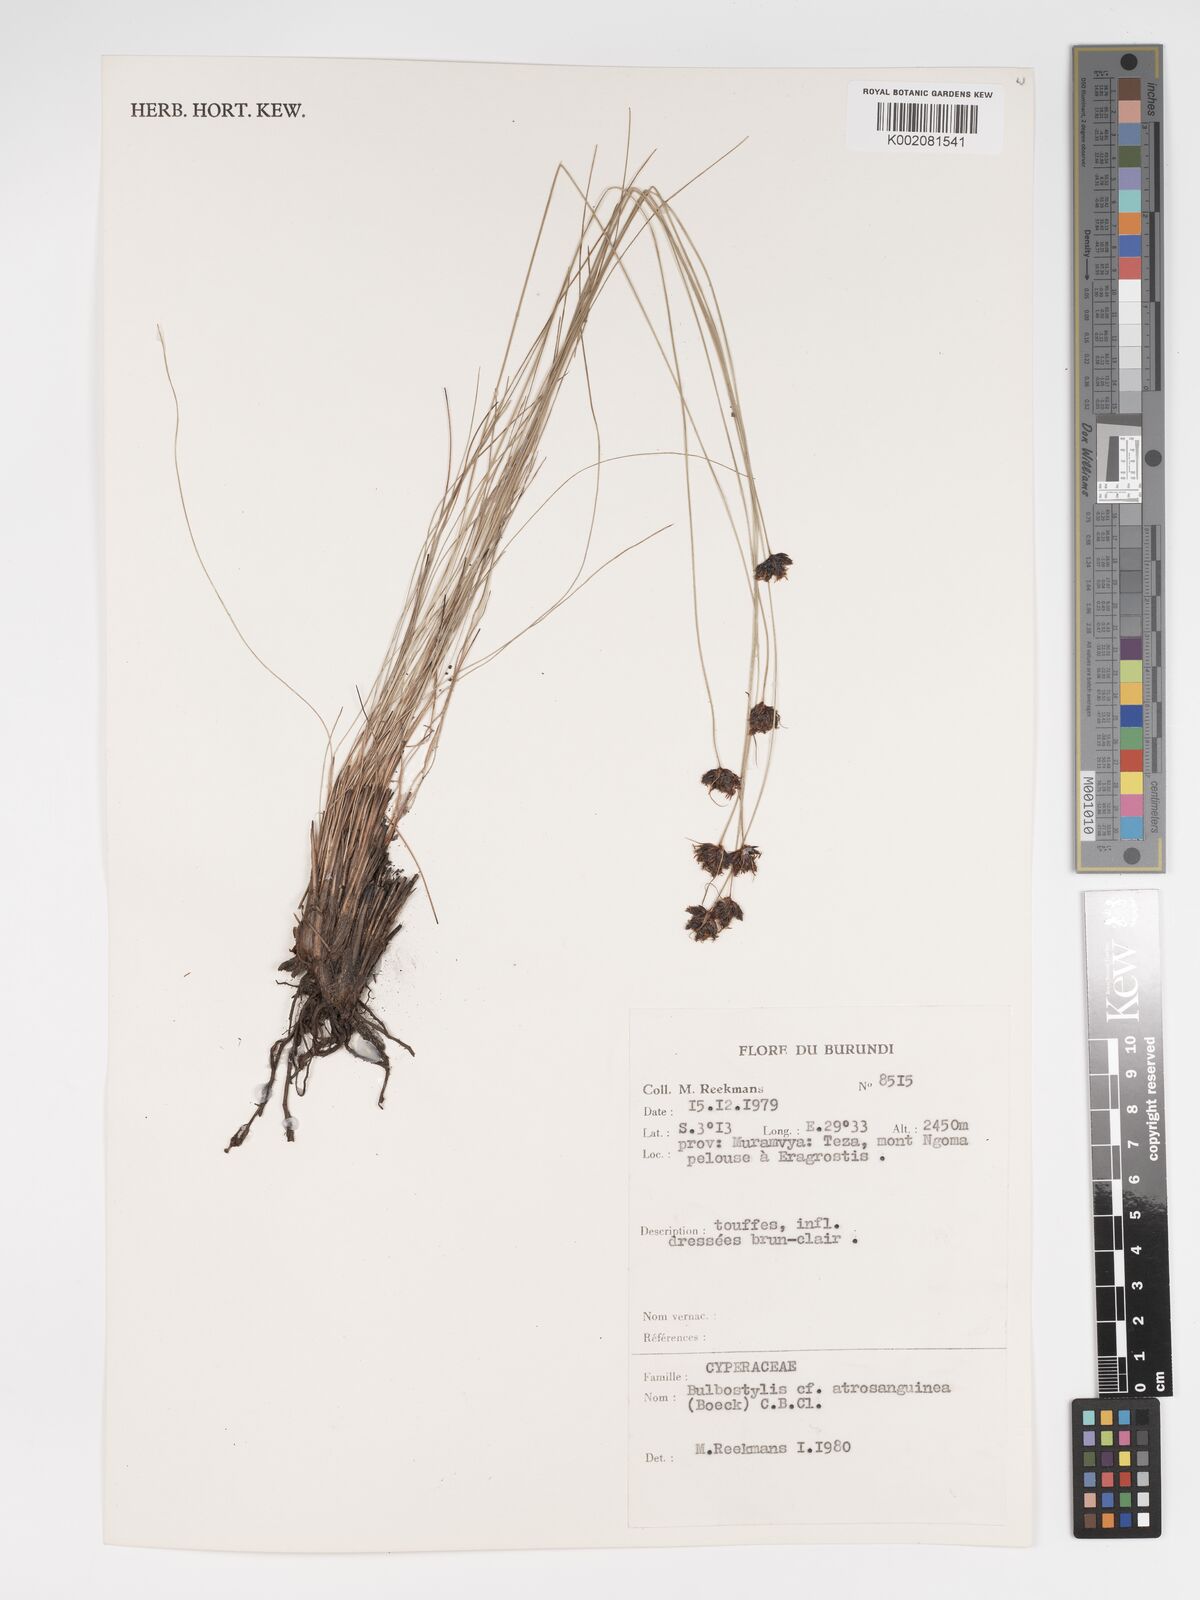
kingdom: Plantae
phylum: Tracheophyta
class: Liliopsida
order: Poales
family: Cyperaceae
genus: Bulbostylis
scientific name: Bulbostylis atrosanguinea
